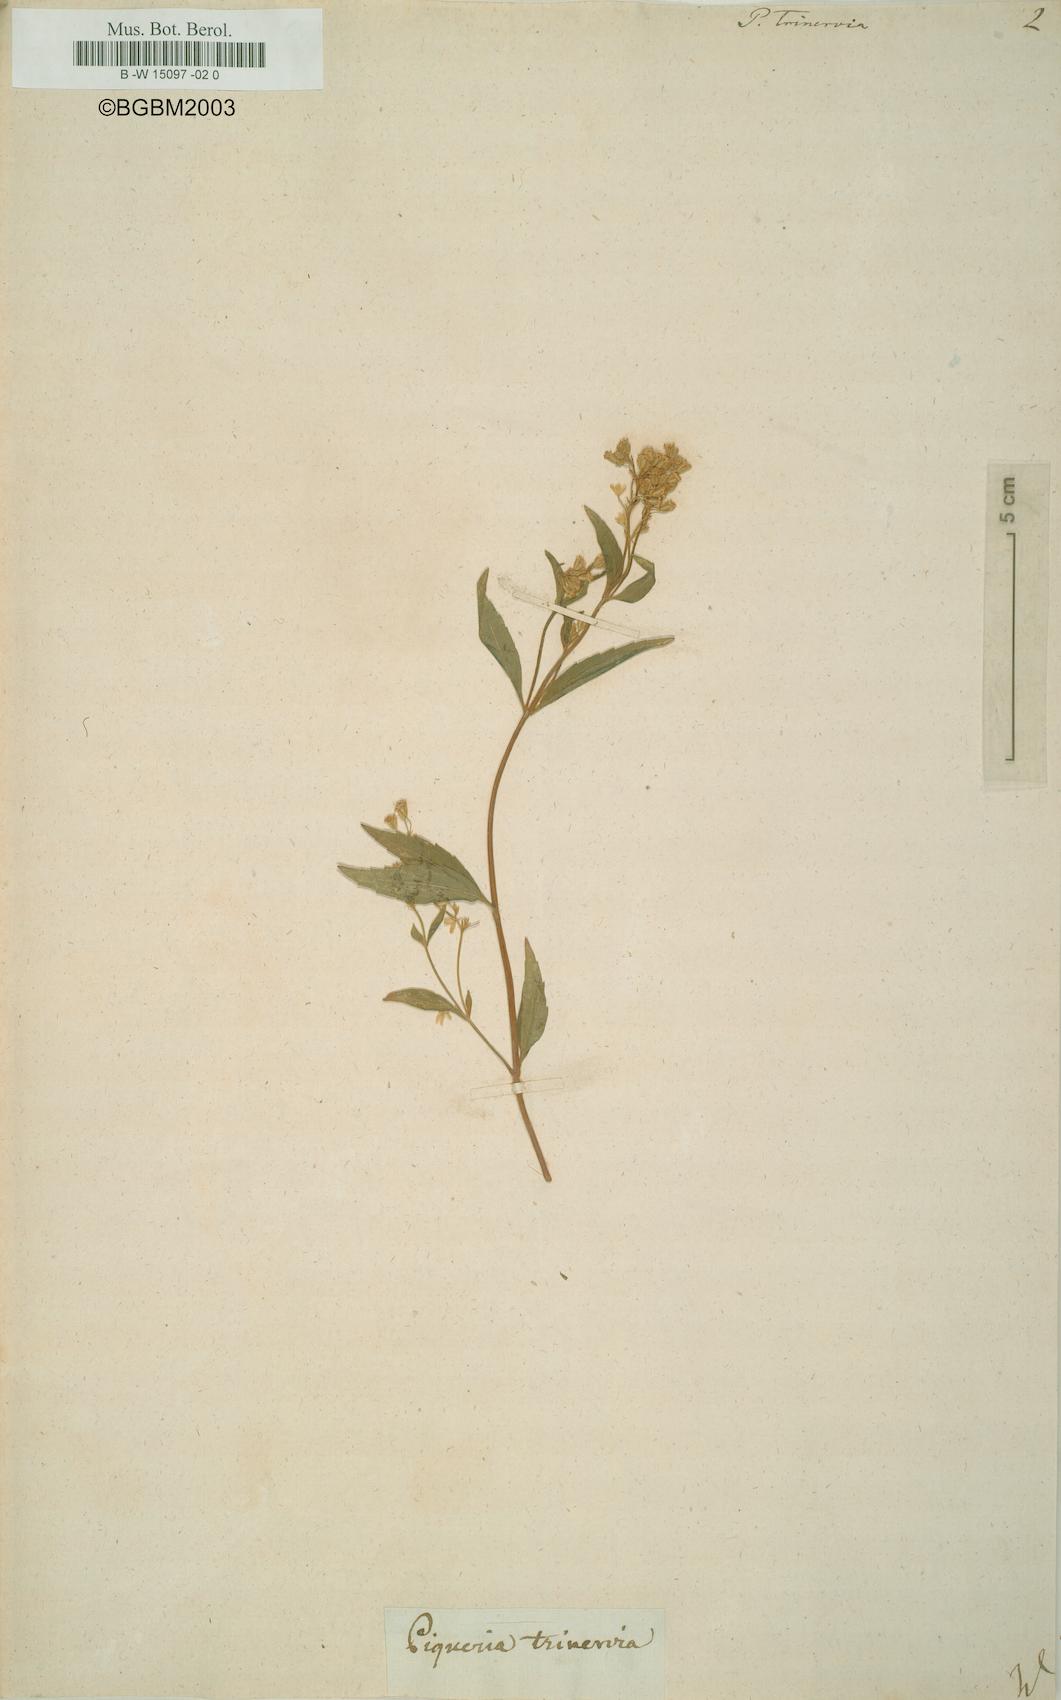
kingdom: Plantae
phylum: Tracheophyta
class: Magnoliopsida
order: Asterales
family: Asteraceae
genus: Piqueria
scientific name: Piqueria trinervia
